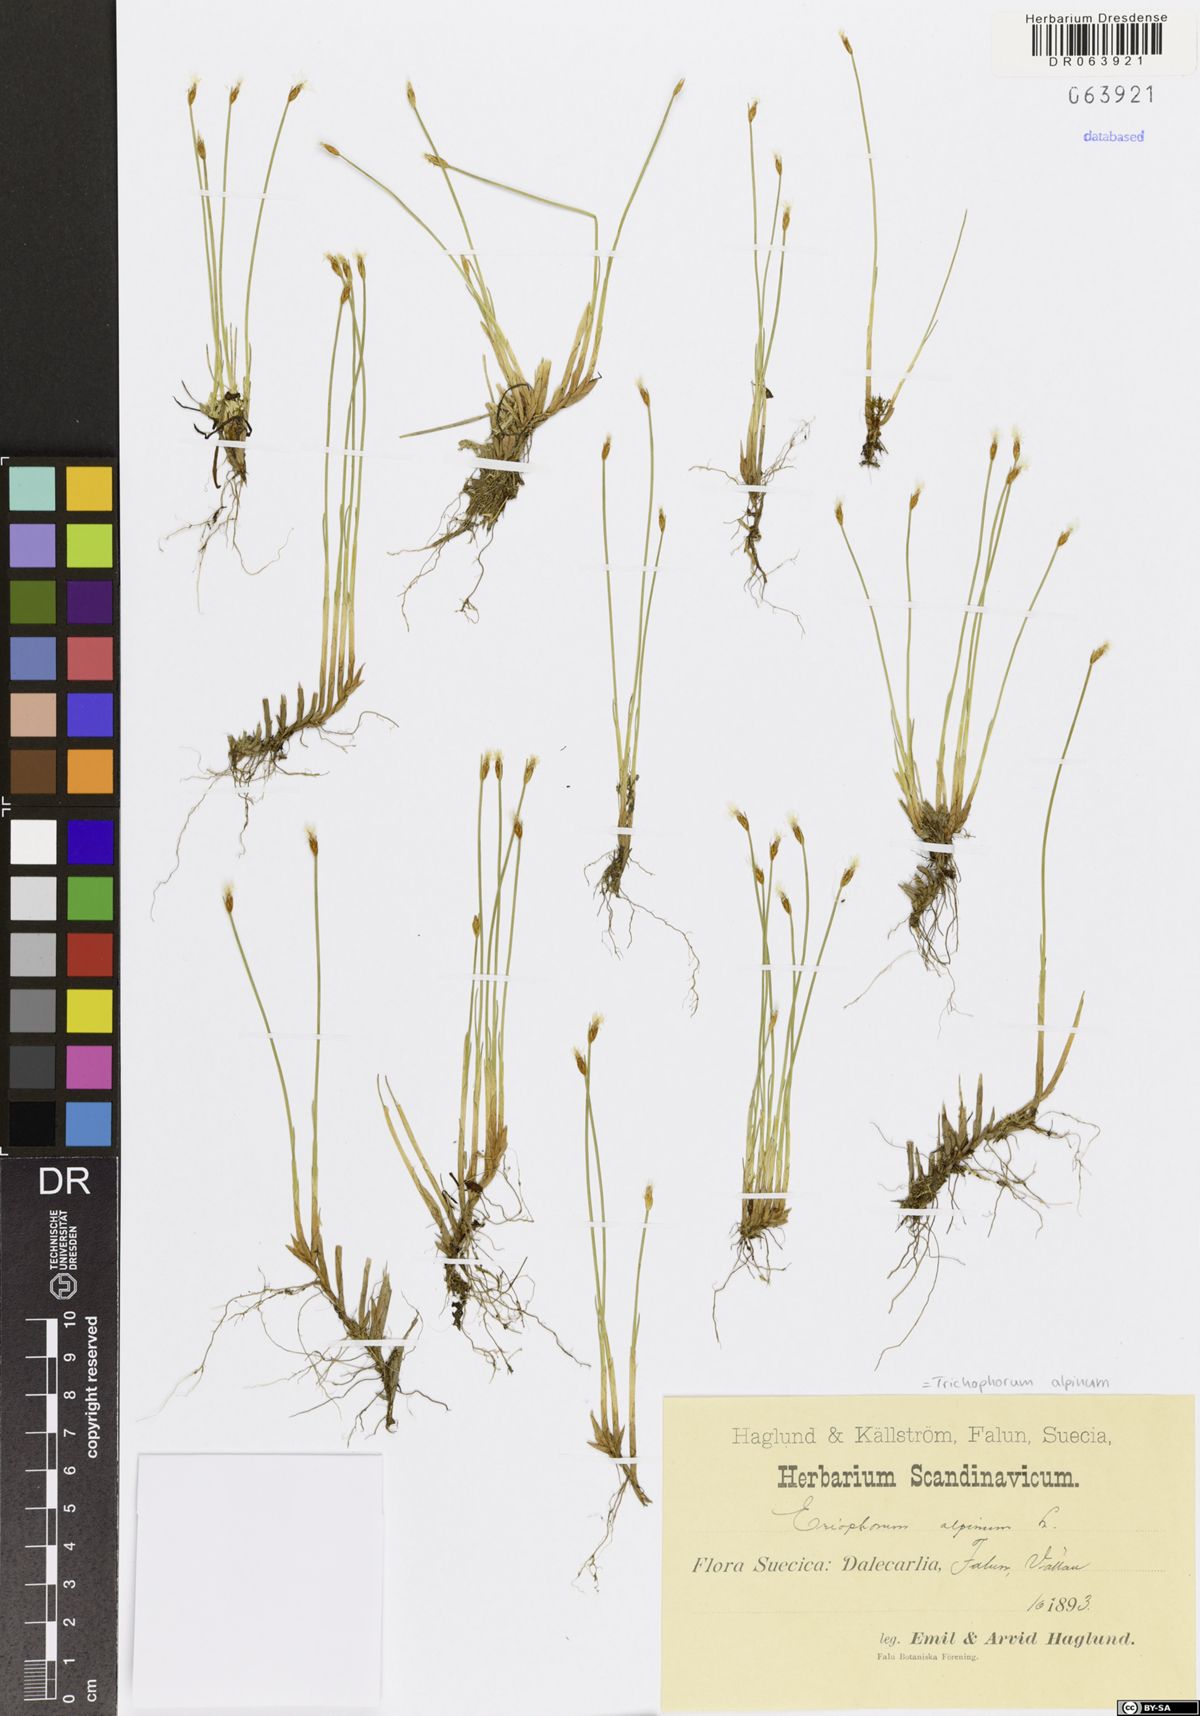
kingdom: Plantae
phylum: Tracheophyta
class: Liliopsida
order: Poales
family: Cyperaceae
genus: Trichophorum
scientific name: Trichophorum alpinum
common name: Alpine bulrush
